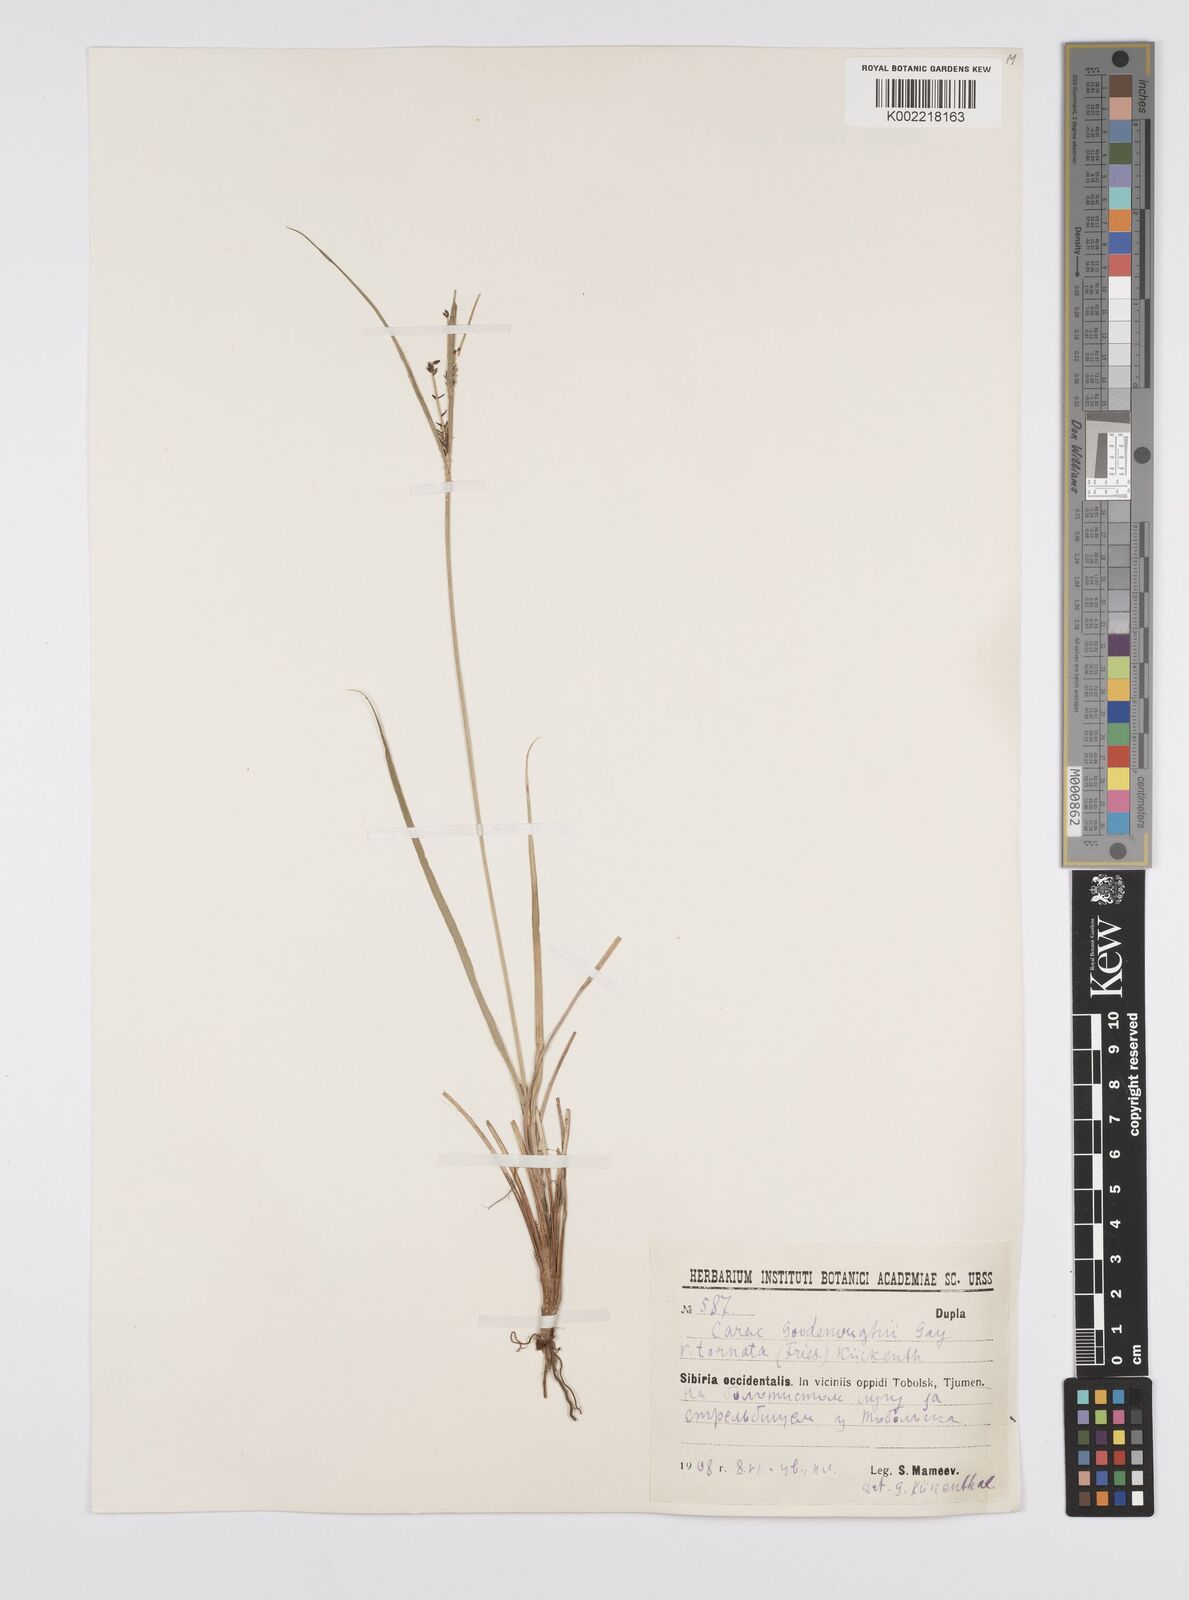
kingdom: Plantae
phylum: Tracheophyta
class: Liliopsida
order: Poales
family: Cyperaceae
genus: Carex
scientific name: Carex nigra
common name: Common sedge
